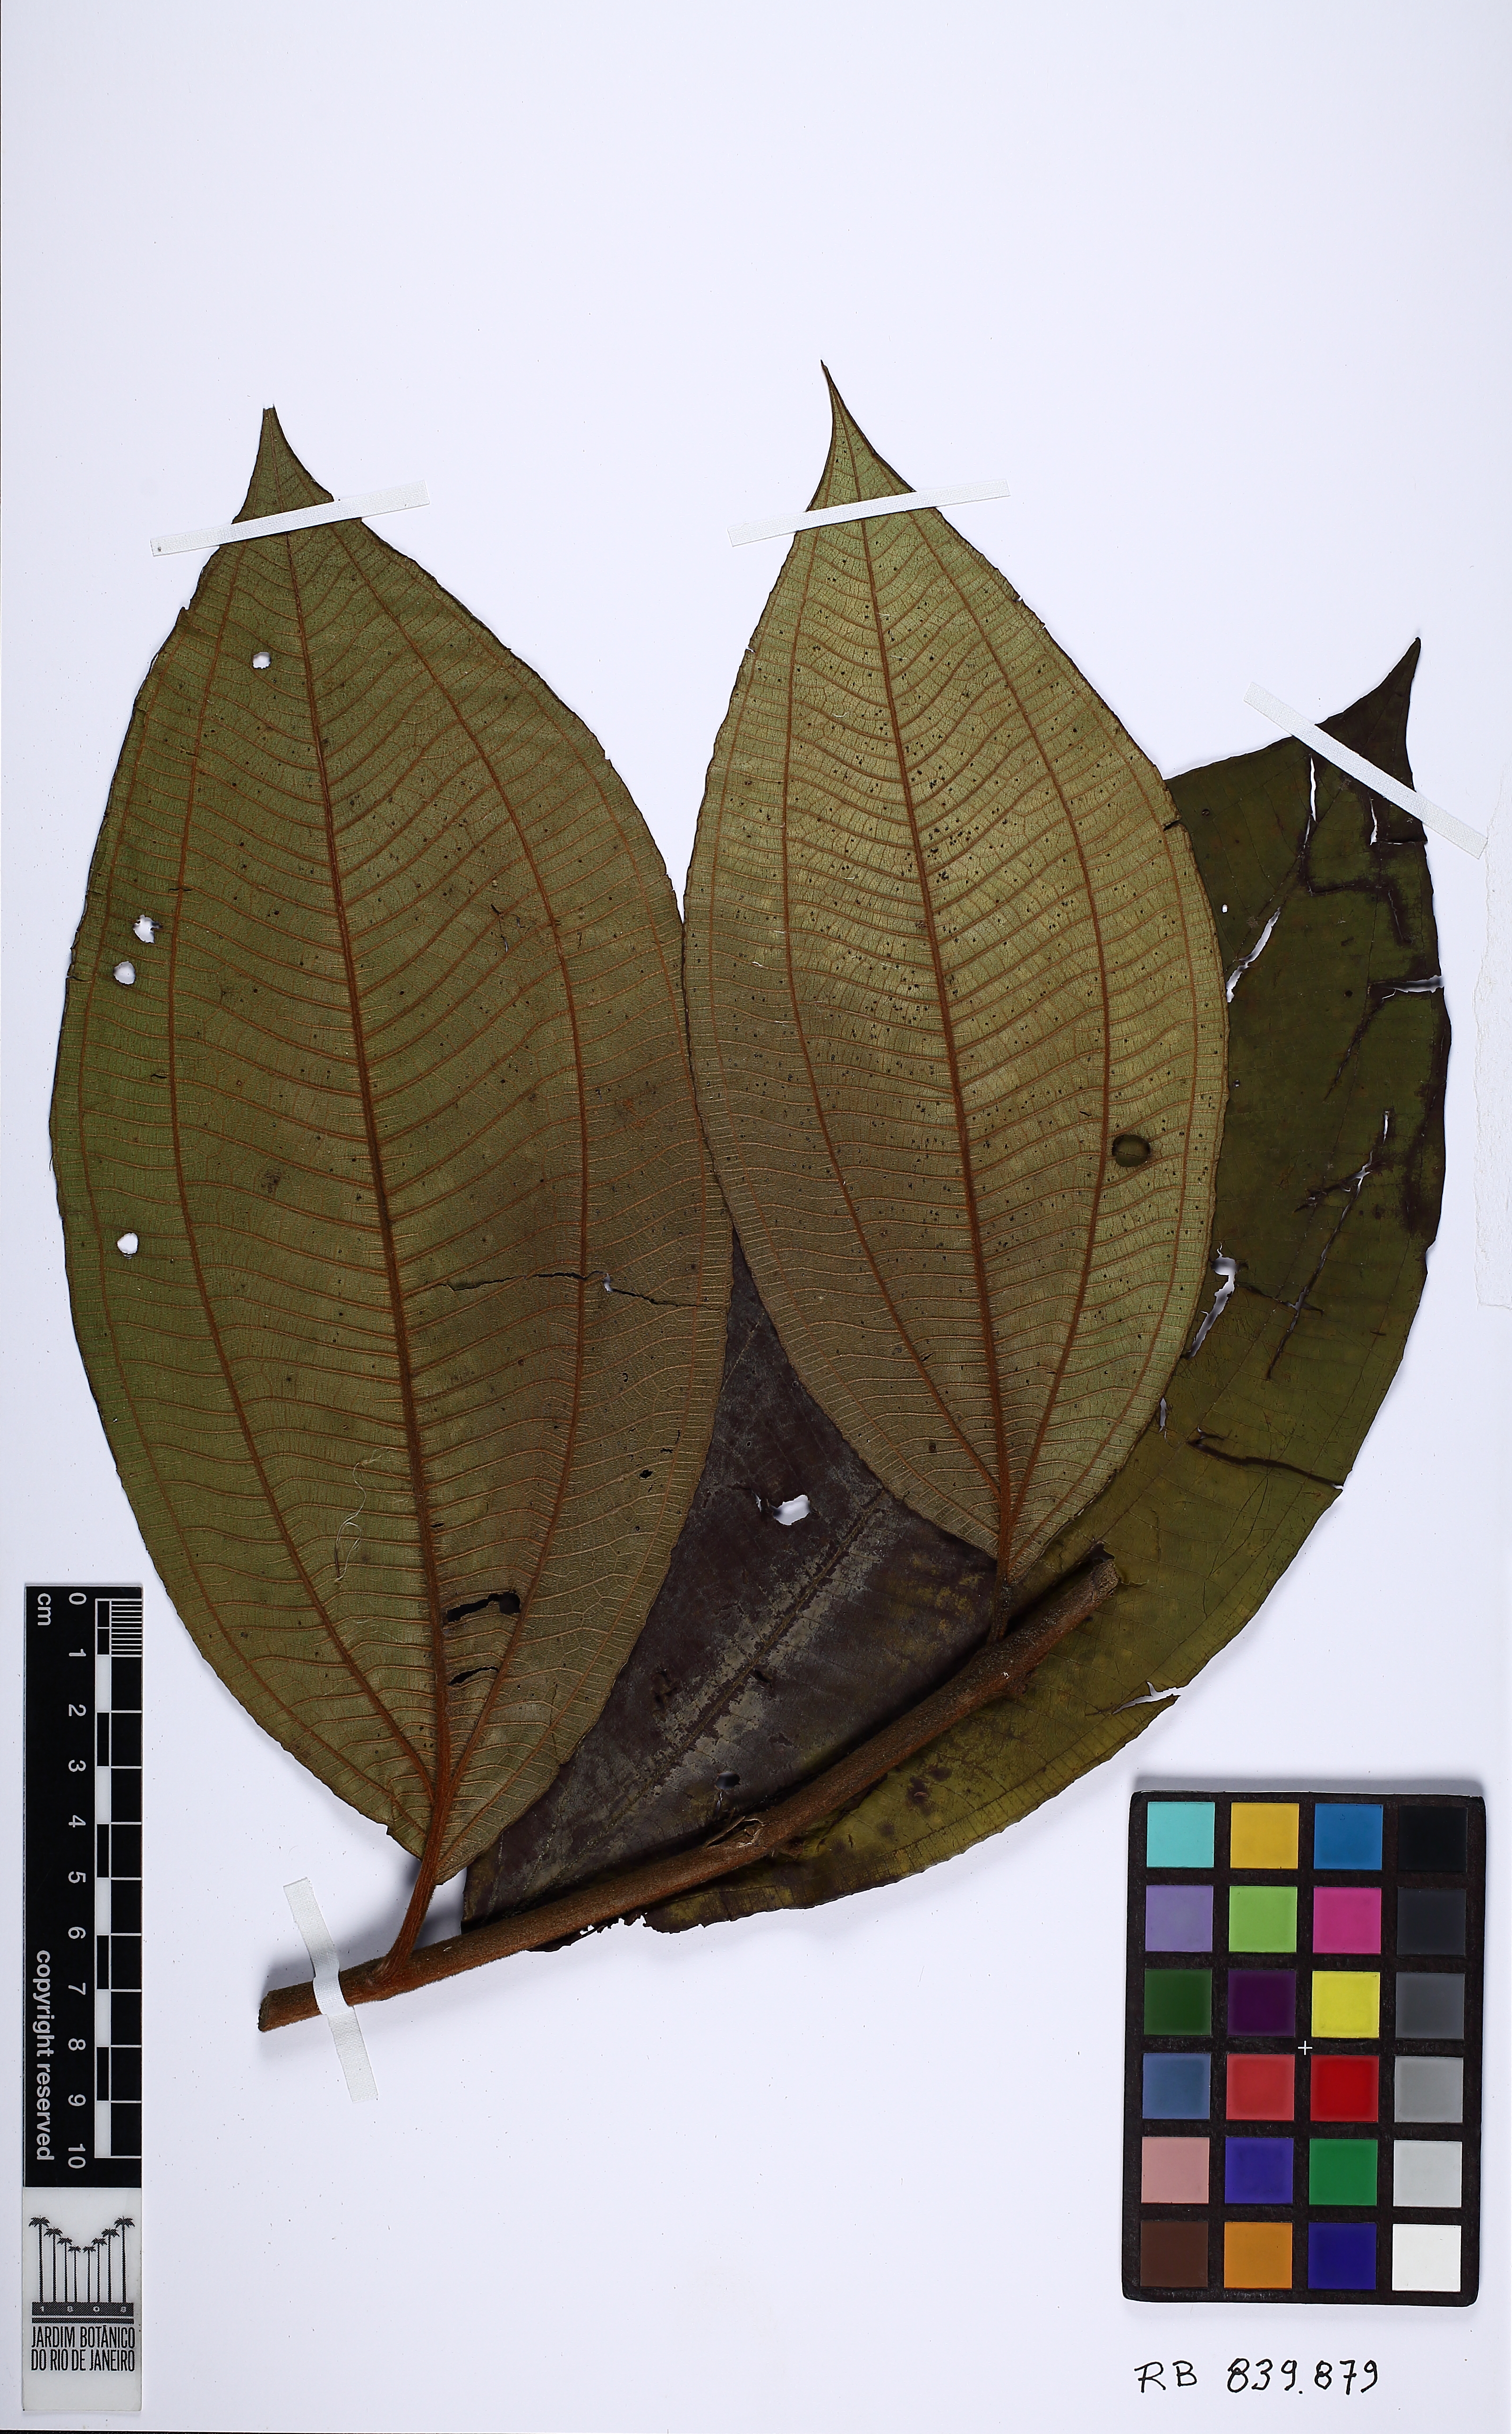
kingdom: Plantae
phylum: Tracheophyta
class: Magnoliopsida
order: Myrtales
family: Melastomataceae
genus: Miconia
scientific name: Miconia fasciculata
